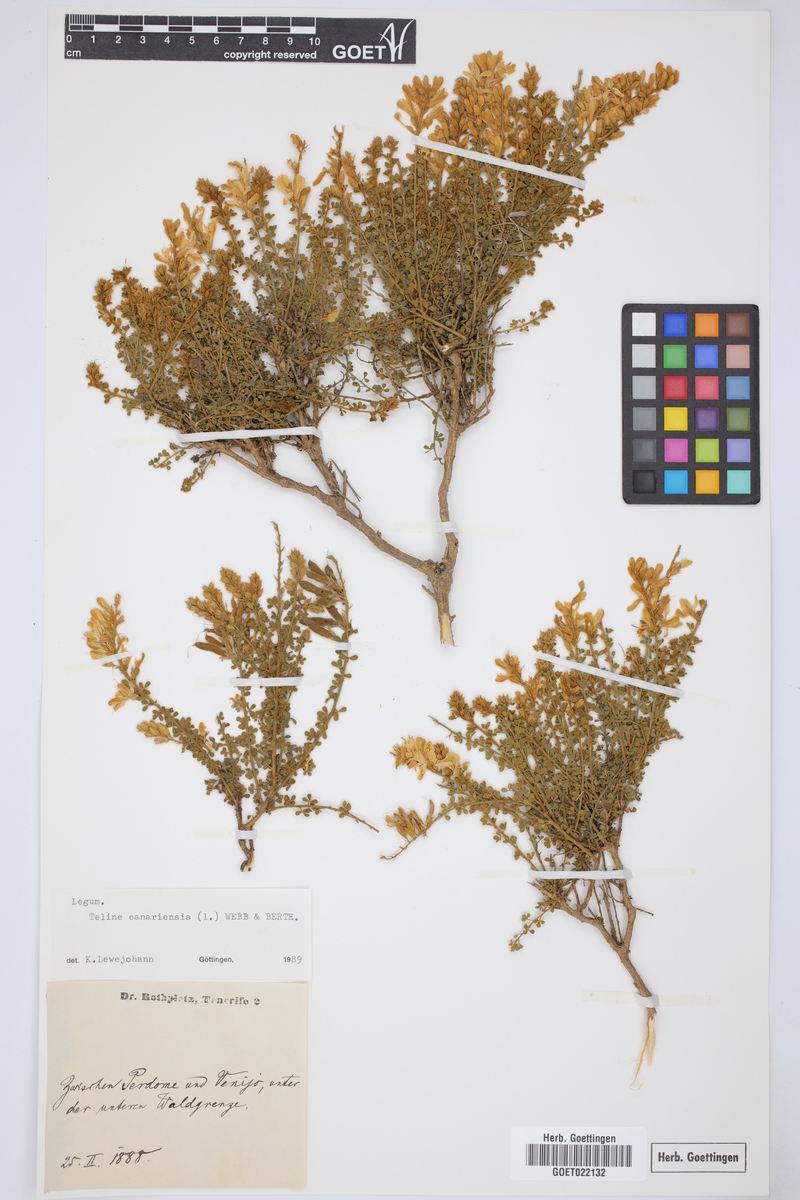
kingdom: Plantae
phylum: Tracheophyta
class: Magnoliopsida
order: Fabales
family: Fabaceae
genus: Genista
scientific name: Genista canariensis
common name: Canary broom
